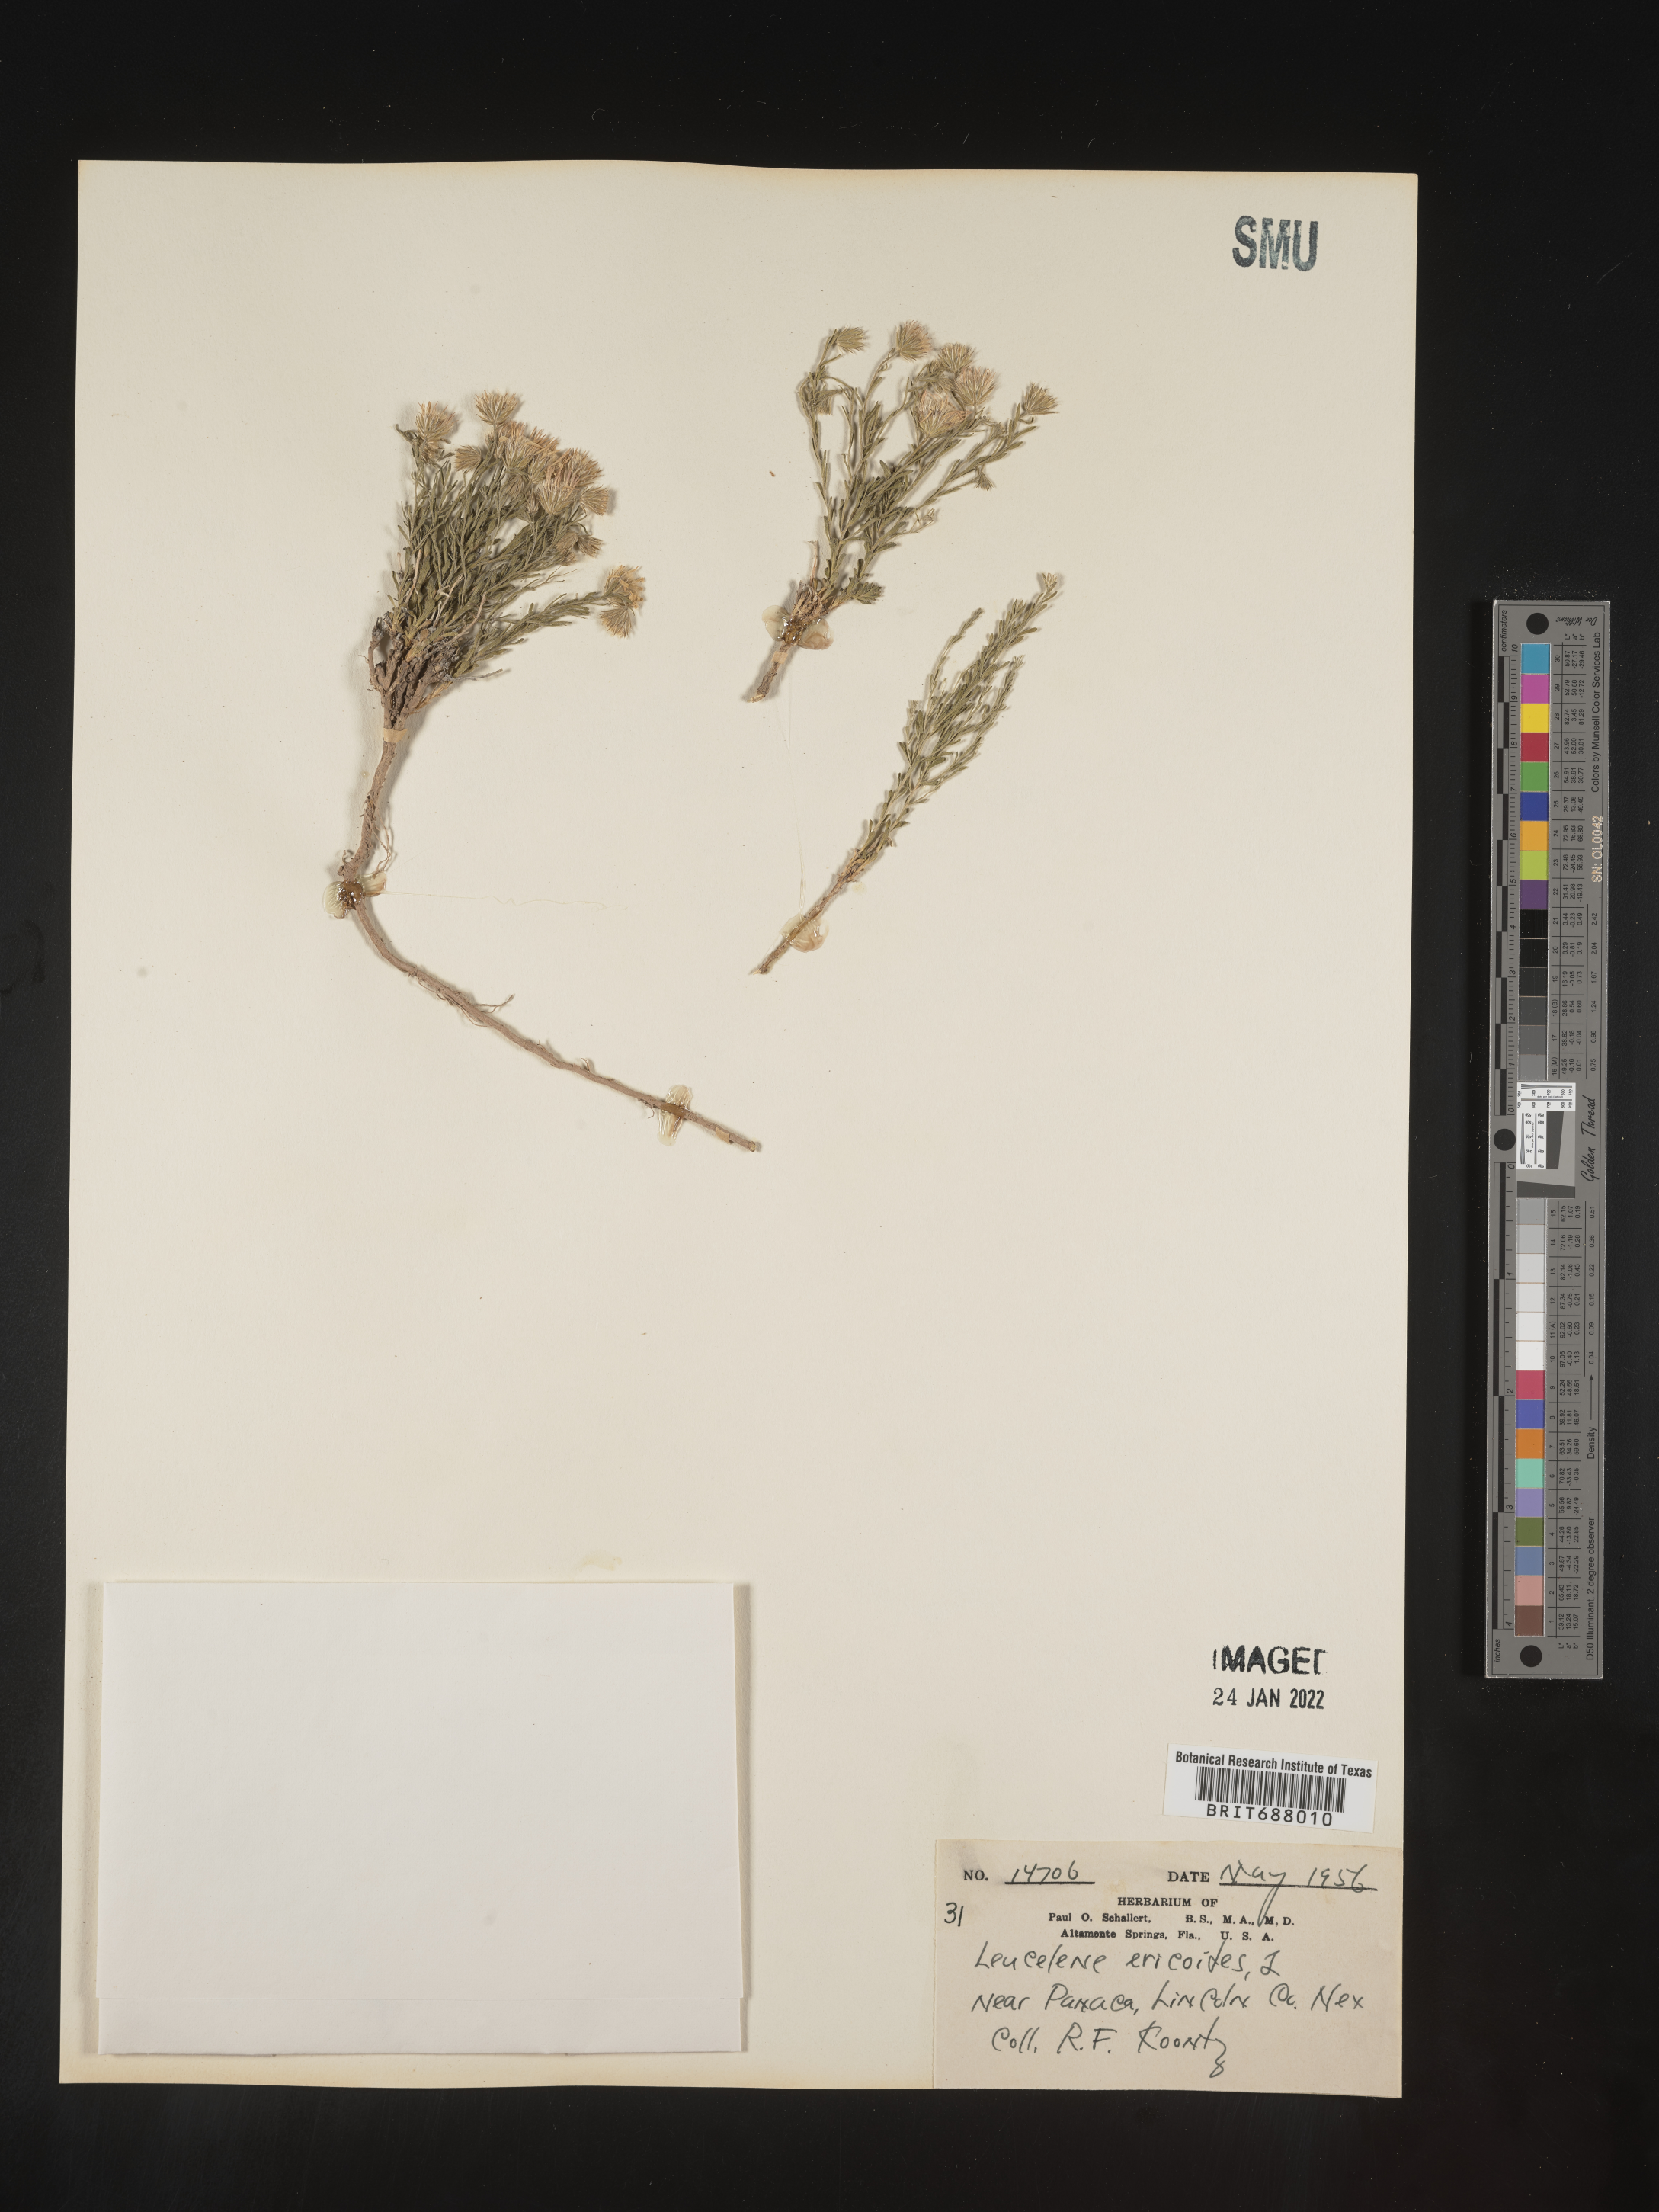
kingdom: Plantae
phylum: Tracheophyta
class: Magnoliopsida
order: Asterales
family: Asteraceae
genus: Chaetopappa
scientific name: Chaetopappa ericoides
